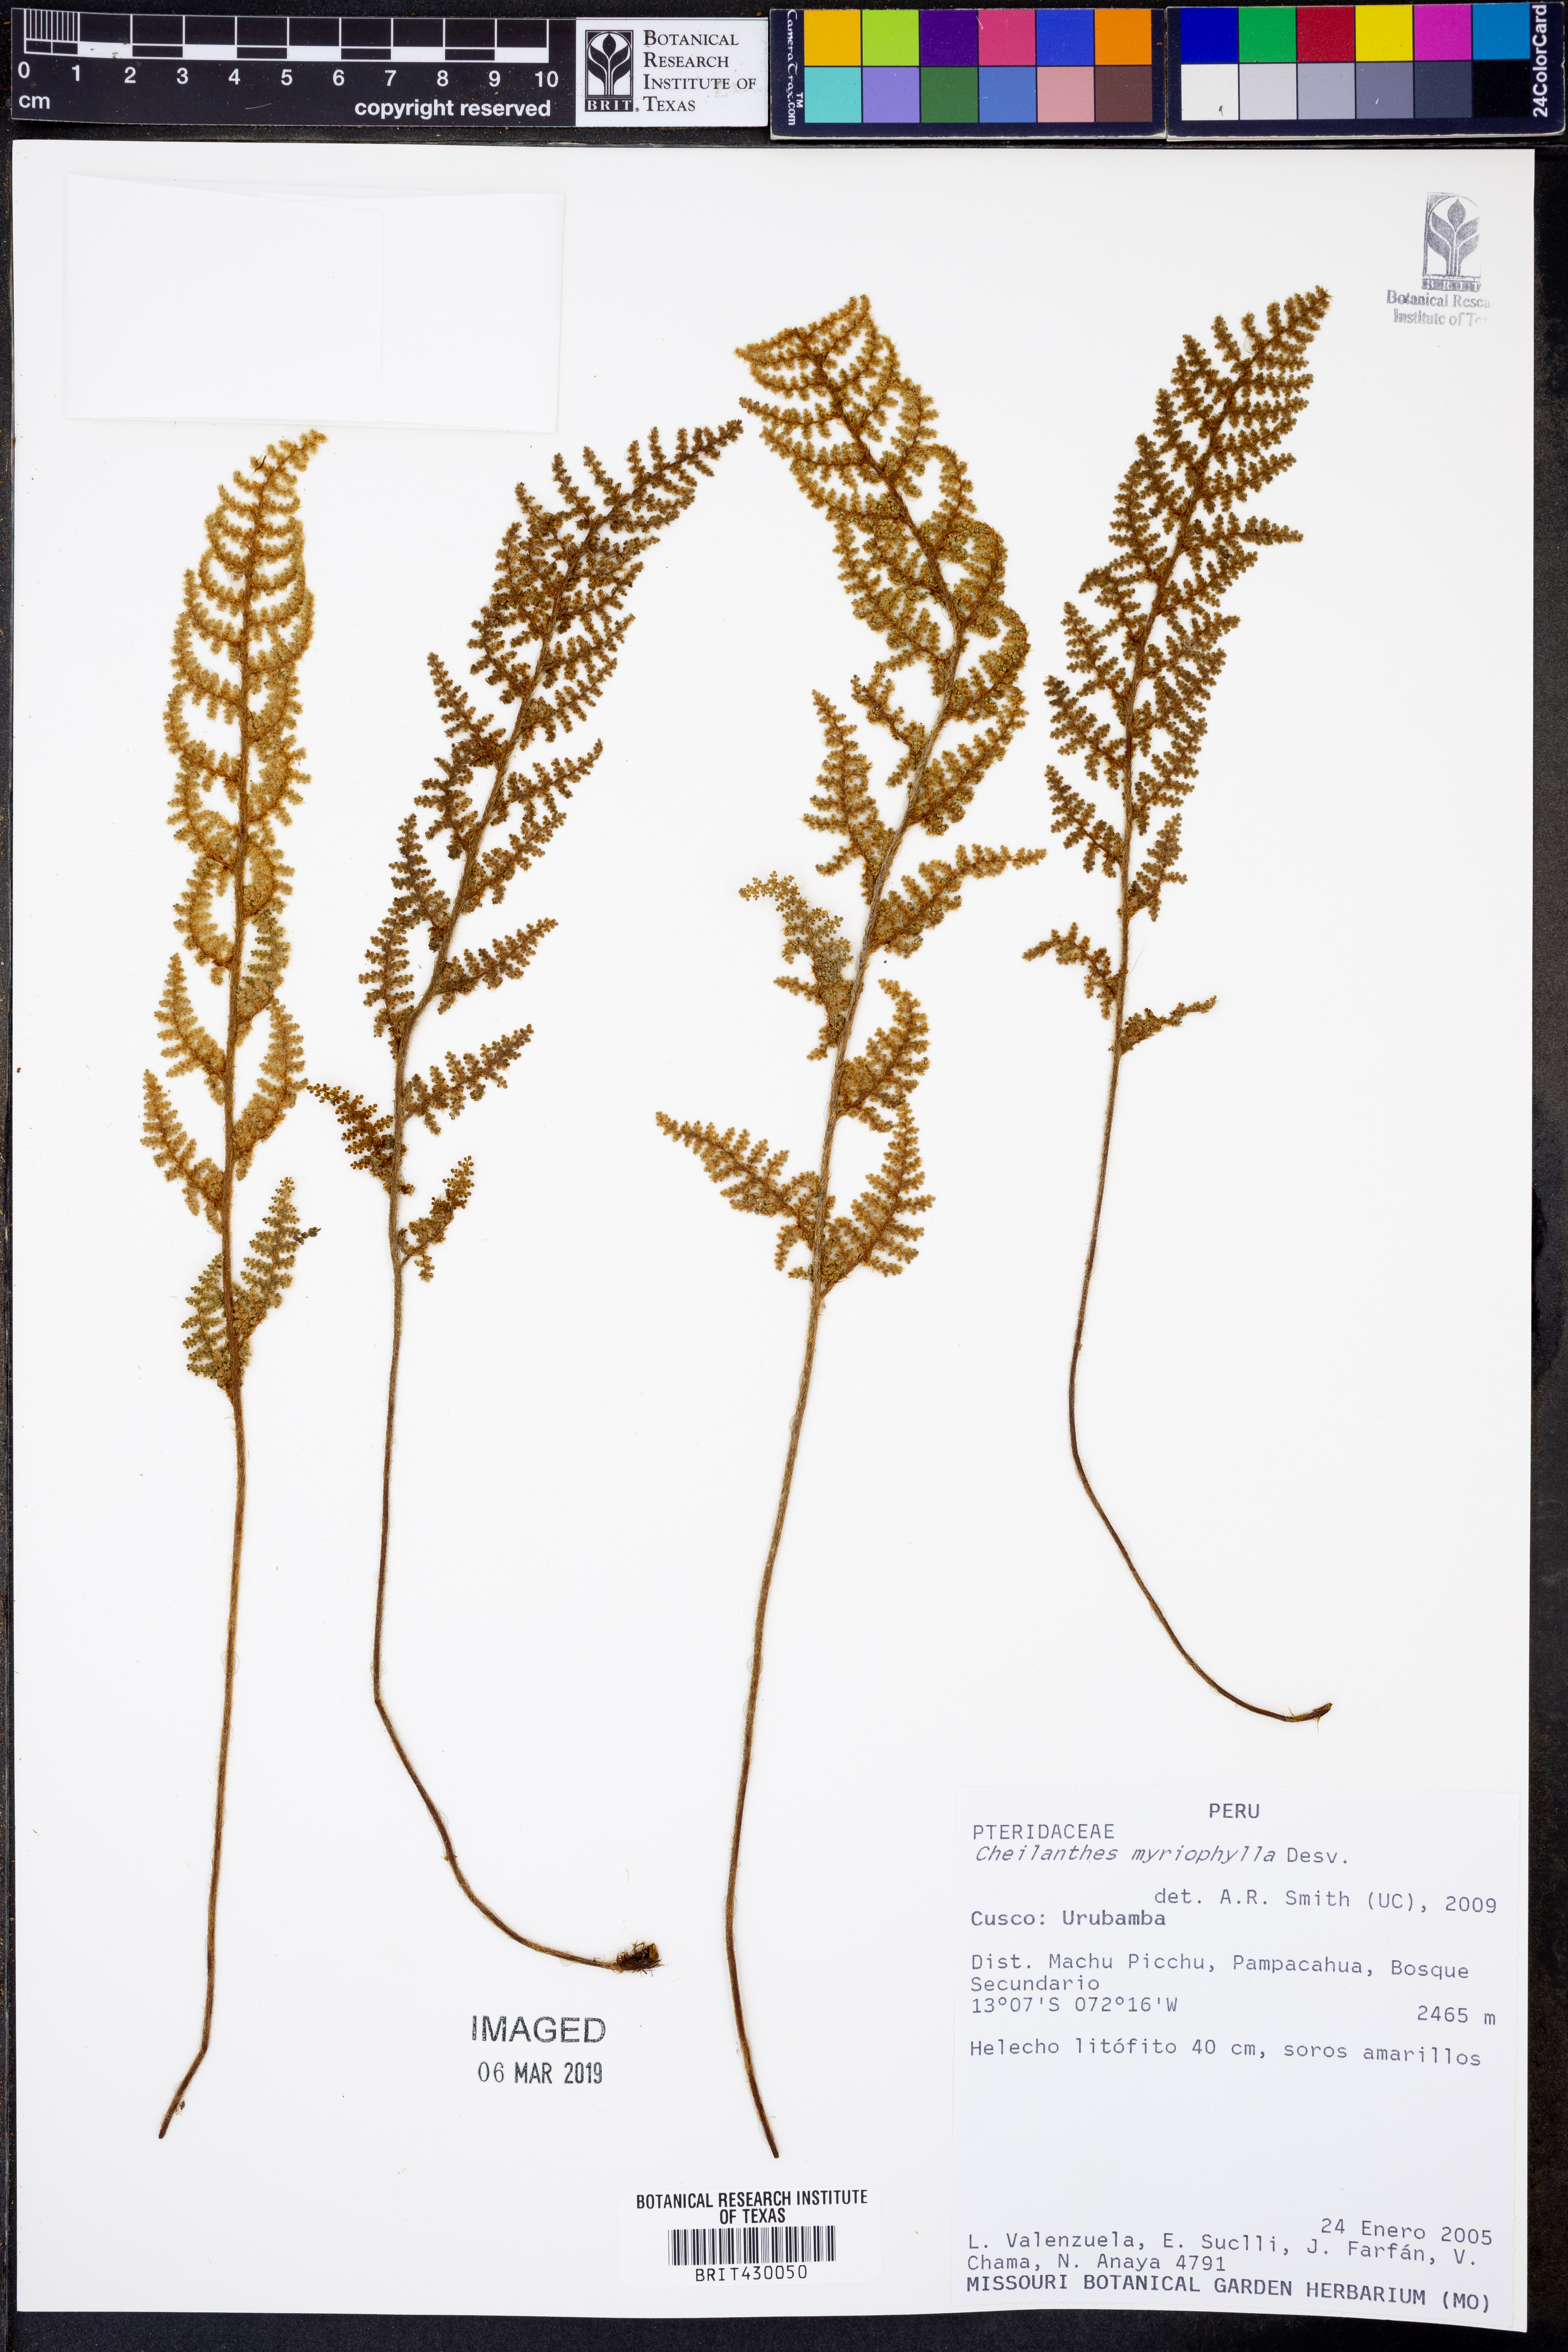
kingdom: Plantae
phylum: Tracheophyta
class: Polypodiopsida
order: Polypodiales
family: Pteridaceae
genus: Myriopteris
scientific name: Myriopteris myriophylla
